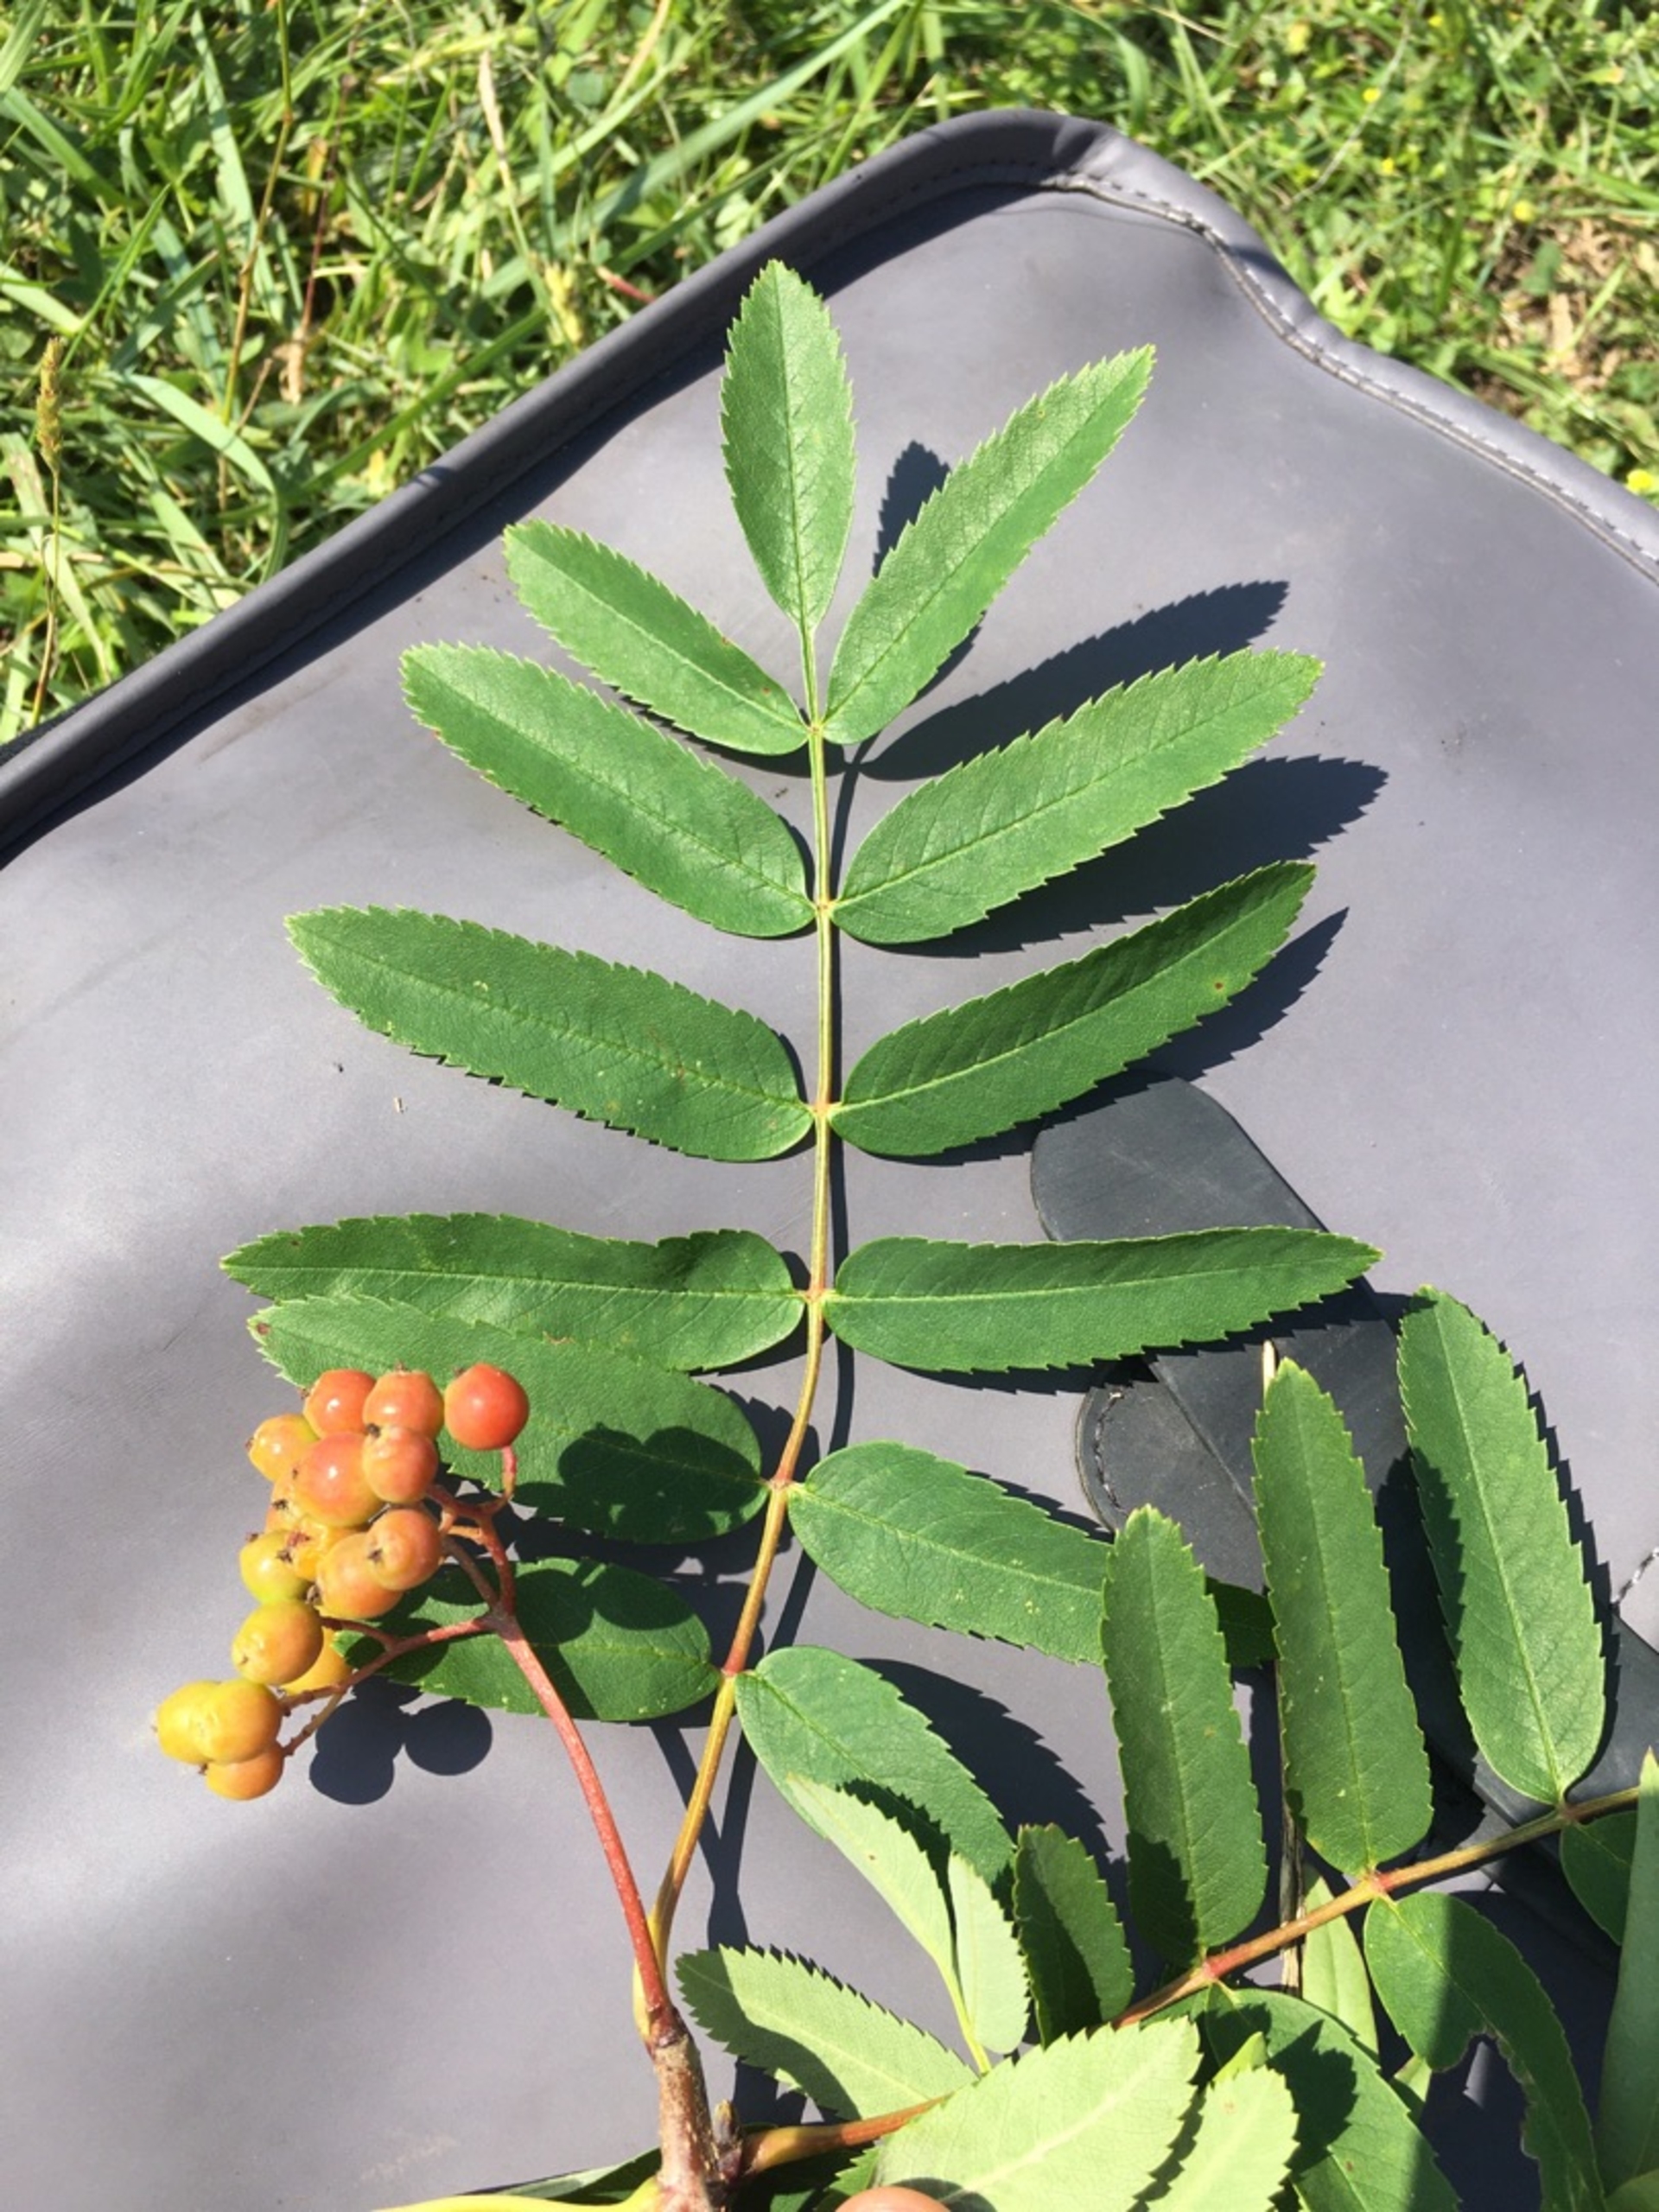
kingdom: Plantae
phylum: Tracheophyta
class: Magnoliopsida
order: Rosales
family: Rosaceae
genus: Sorbus
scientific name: Sorbus aucuparia
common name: Almindelig røn
